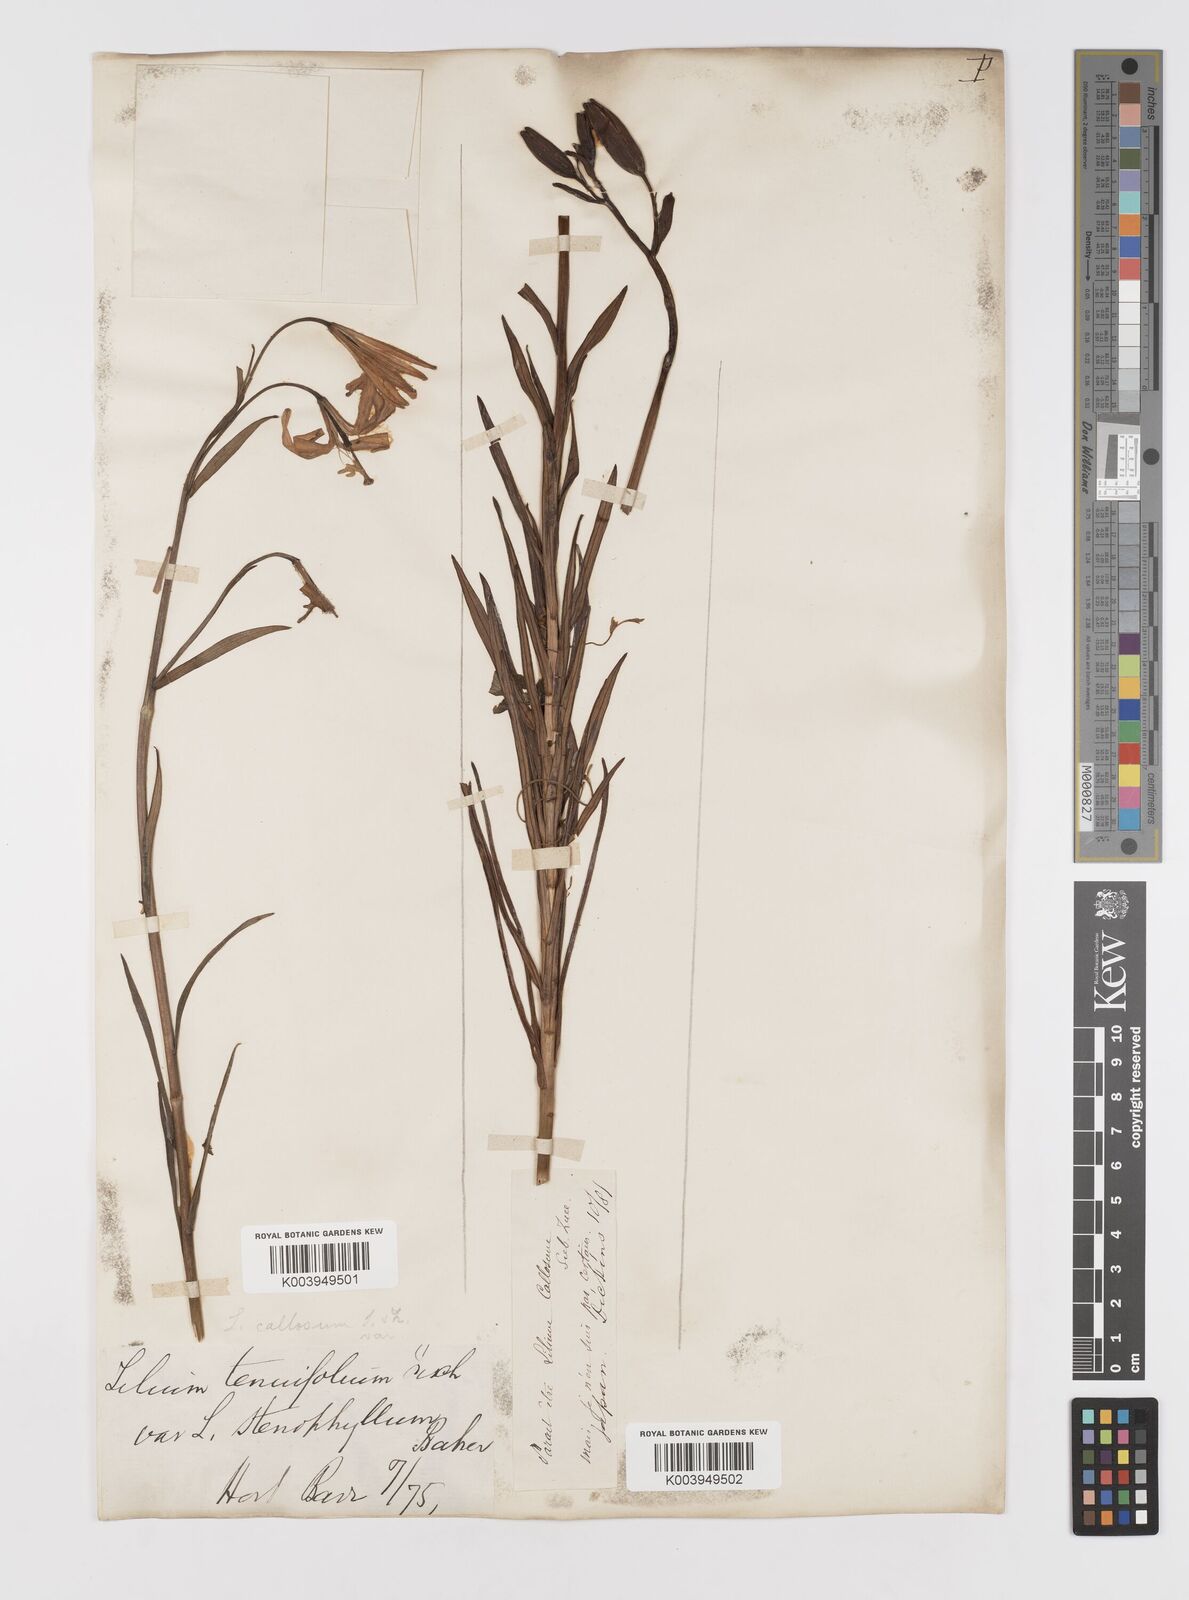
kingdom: Plantae
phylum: Tracheophyta
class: Liliopsida
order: Liliales
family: Liliaceae
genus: Lilium
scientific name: Lilium callosum
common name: Slim-stem lily
